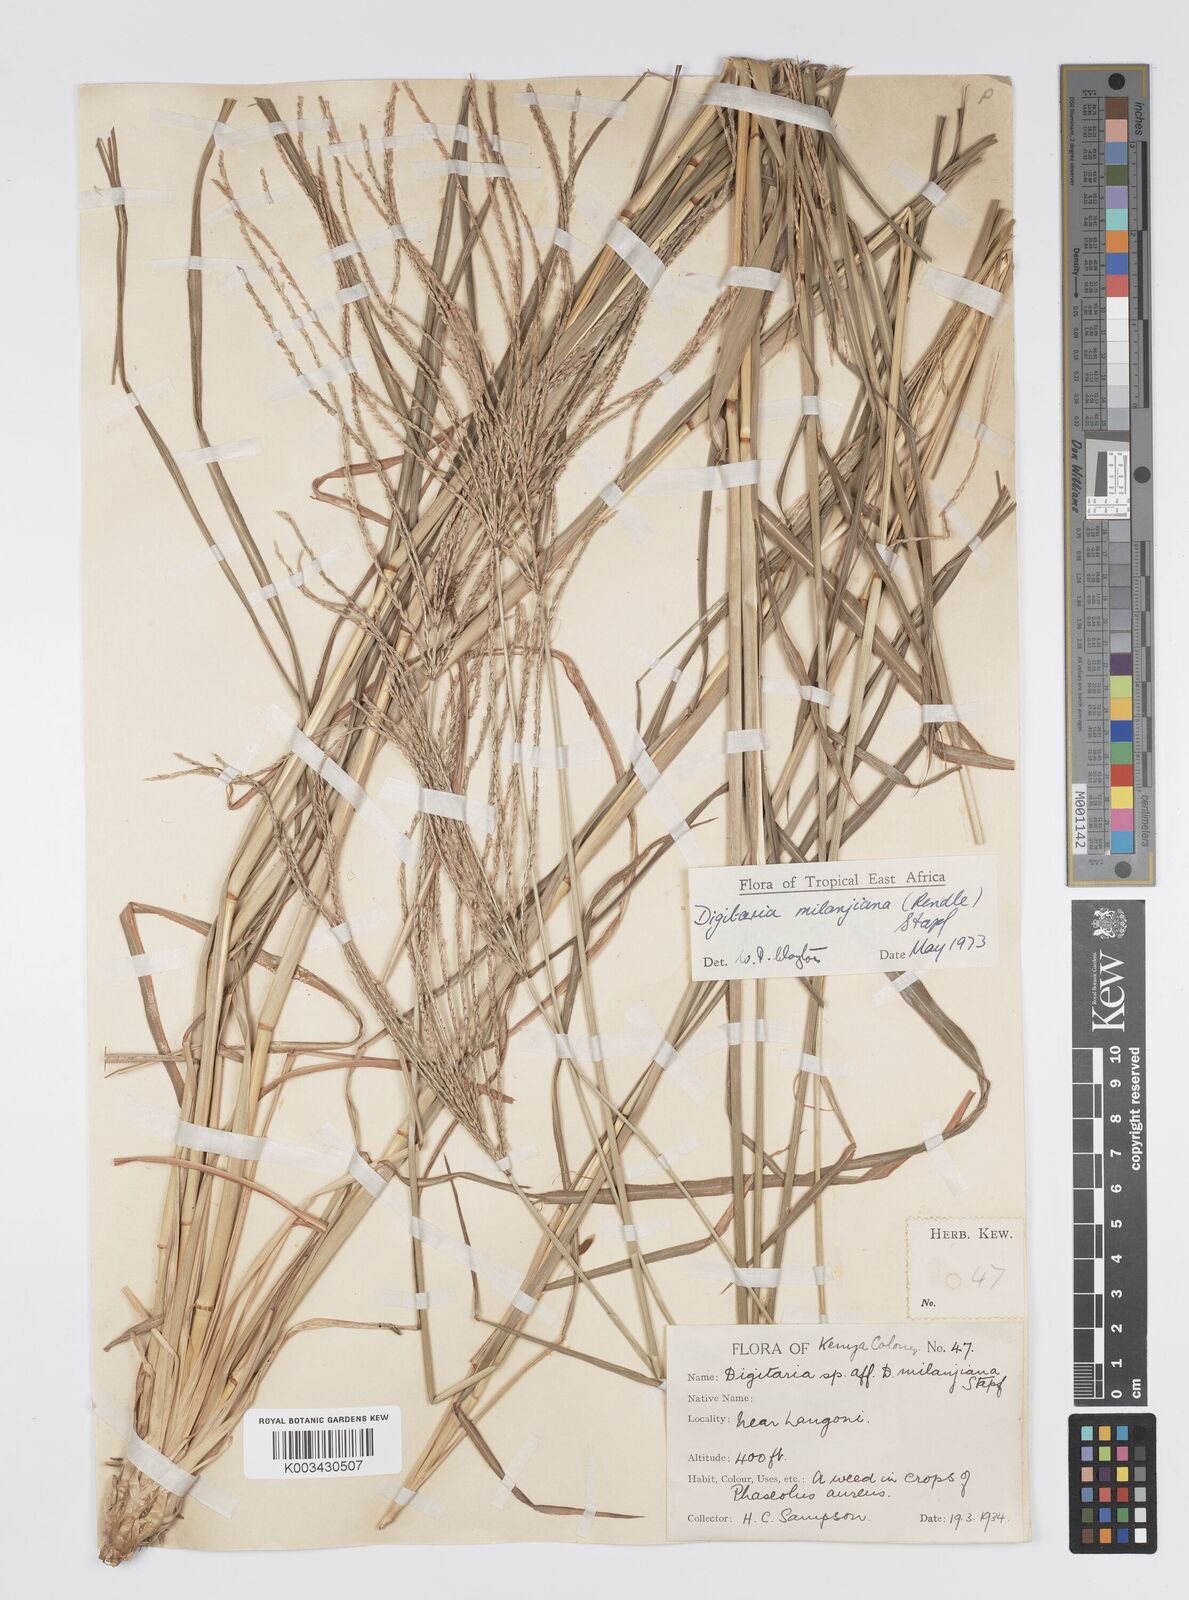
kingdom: Plantae
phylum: Tracheophyta
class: Liliopsida
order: Poales
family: Poaceae
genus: Digitaria
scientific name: Digitaria milanjiana
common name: Madagascar crabgrass
